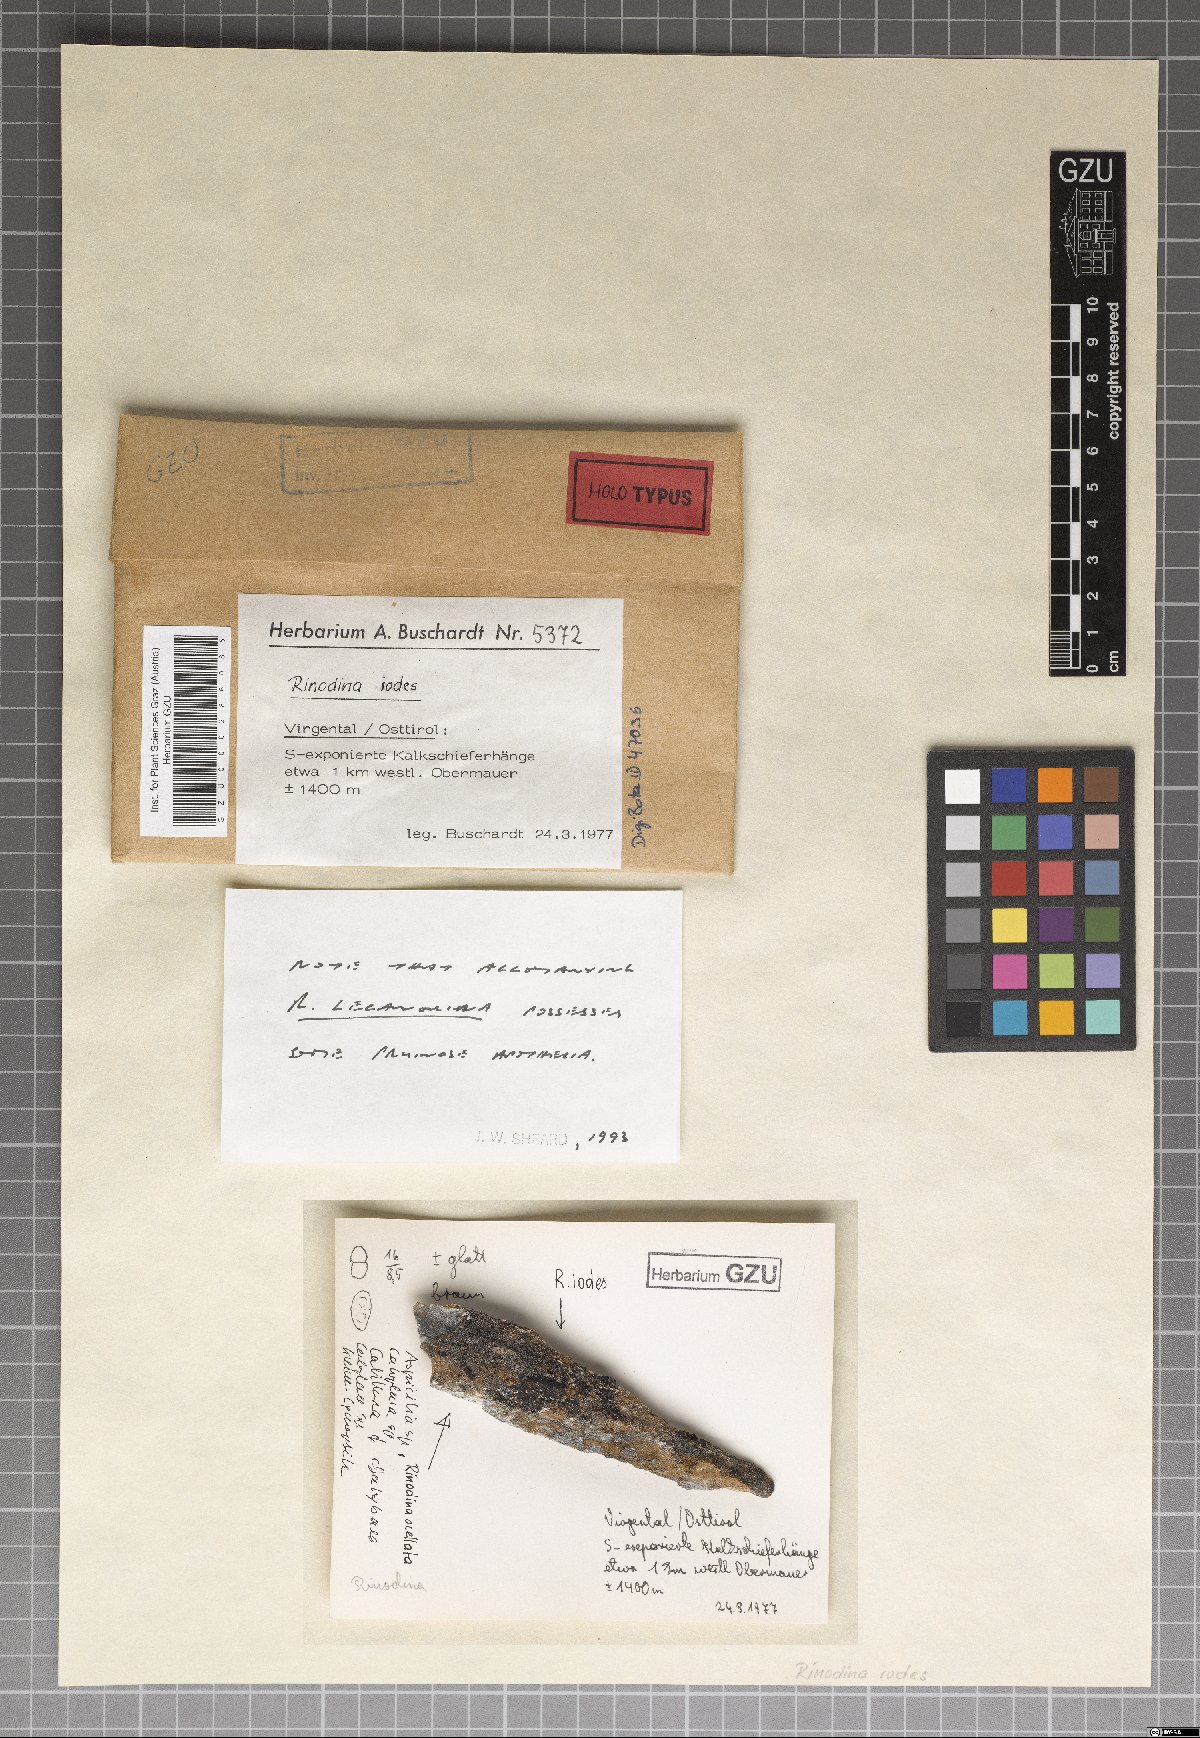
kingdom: Fungi
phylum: Ascomycota
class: Lecanoromycetes
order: Caliciales
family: Physciaceae
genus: Kudratovia
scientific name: Kudratovia luridata
